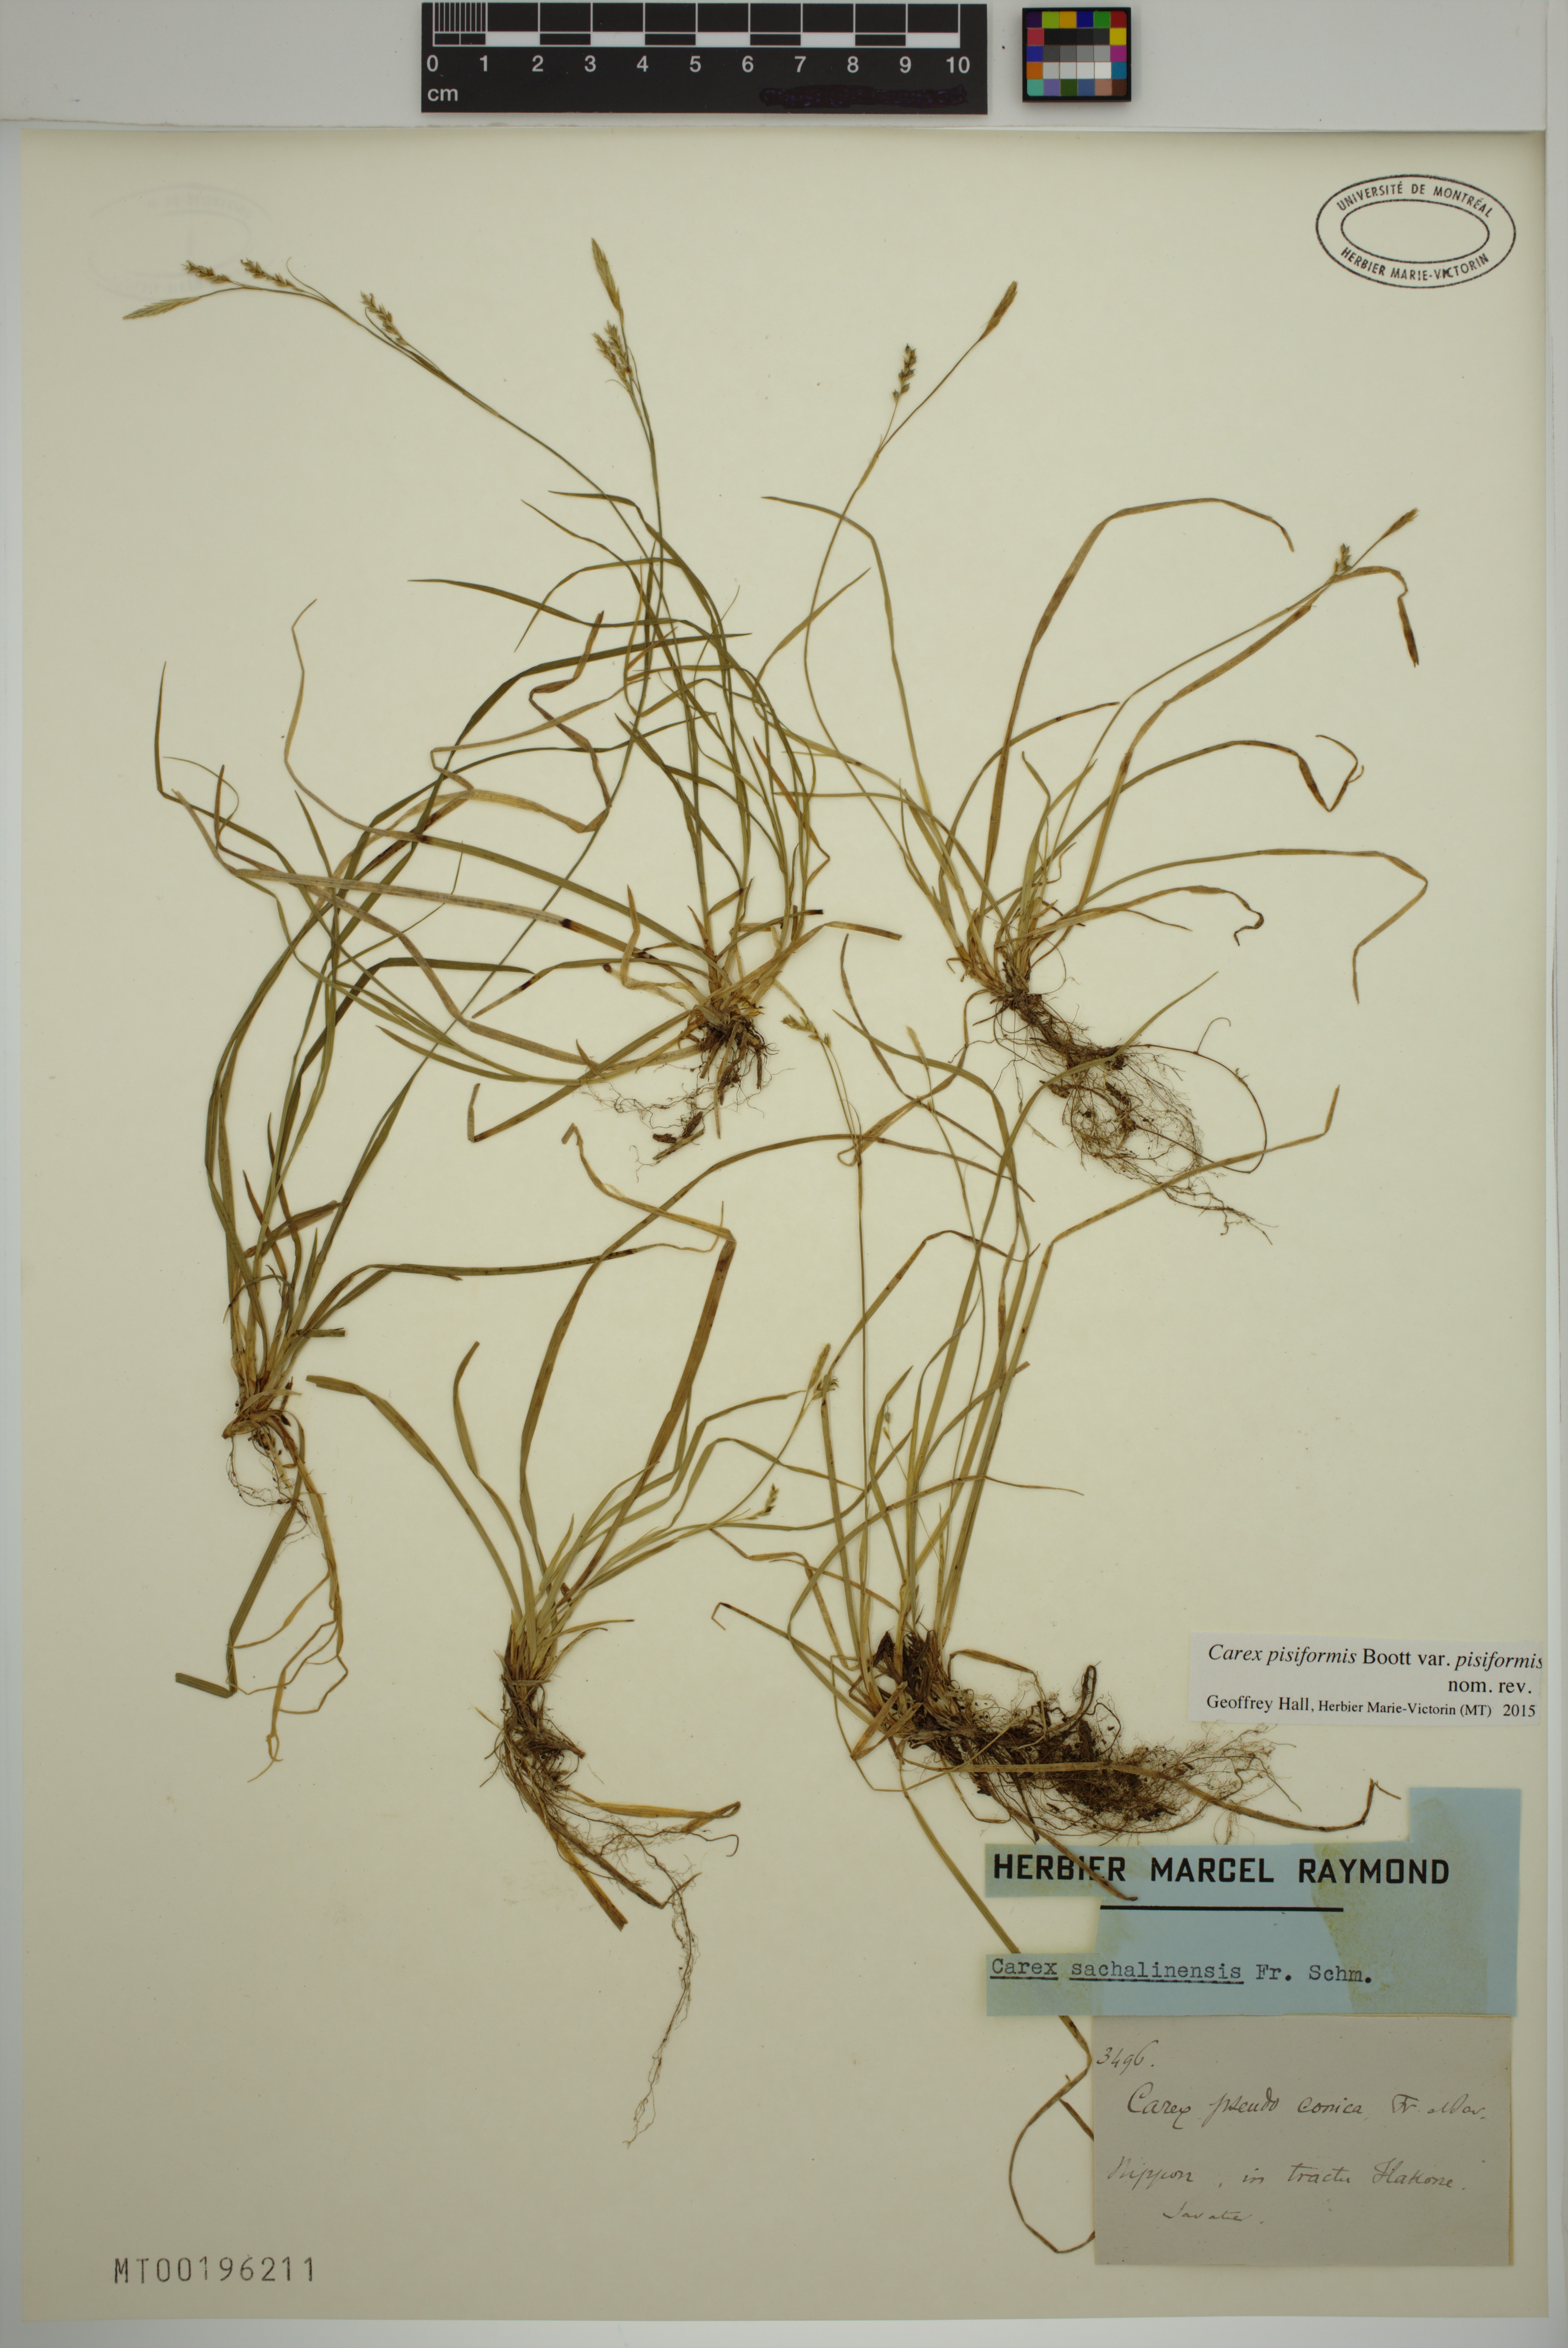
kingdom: Plantae
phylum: Tracheophyta
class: Liliopsida
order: Poales
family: Cyperaceae
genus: Carex
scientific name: Carex pisiformis
